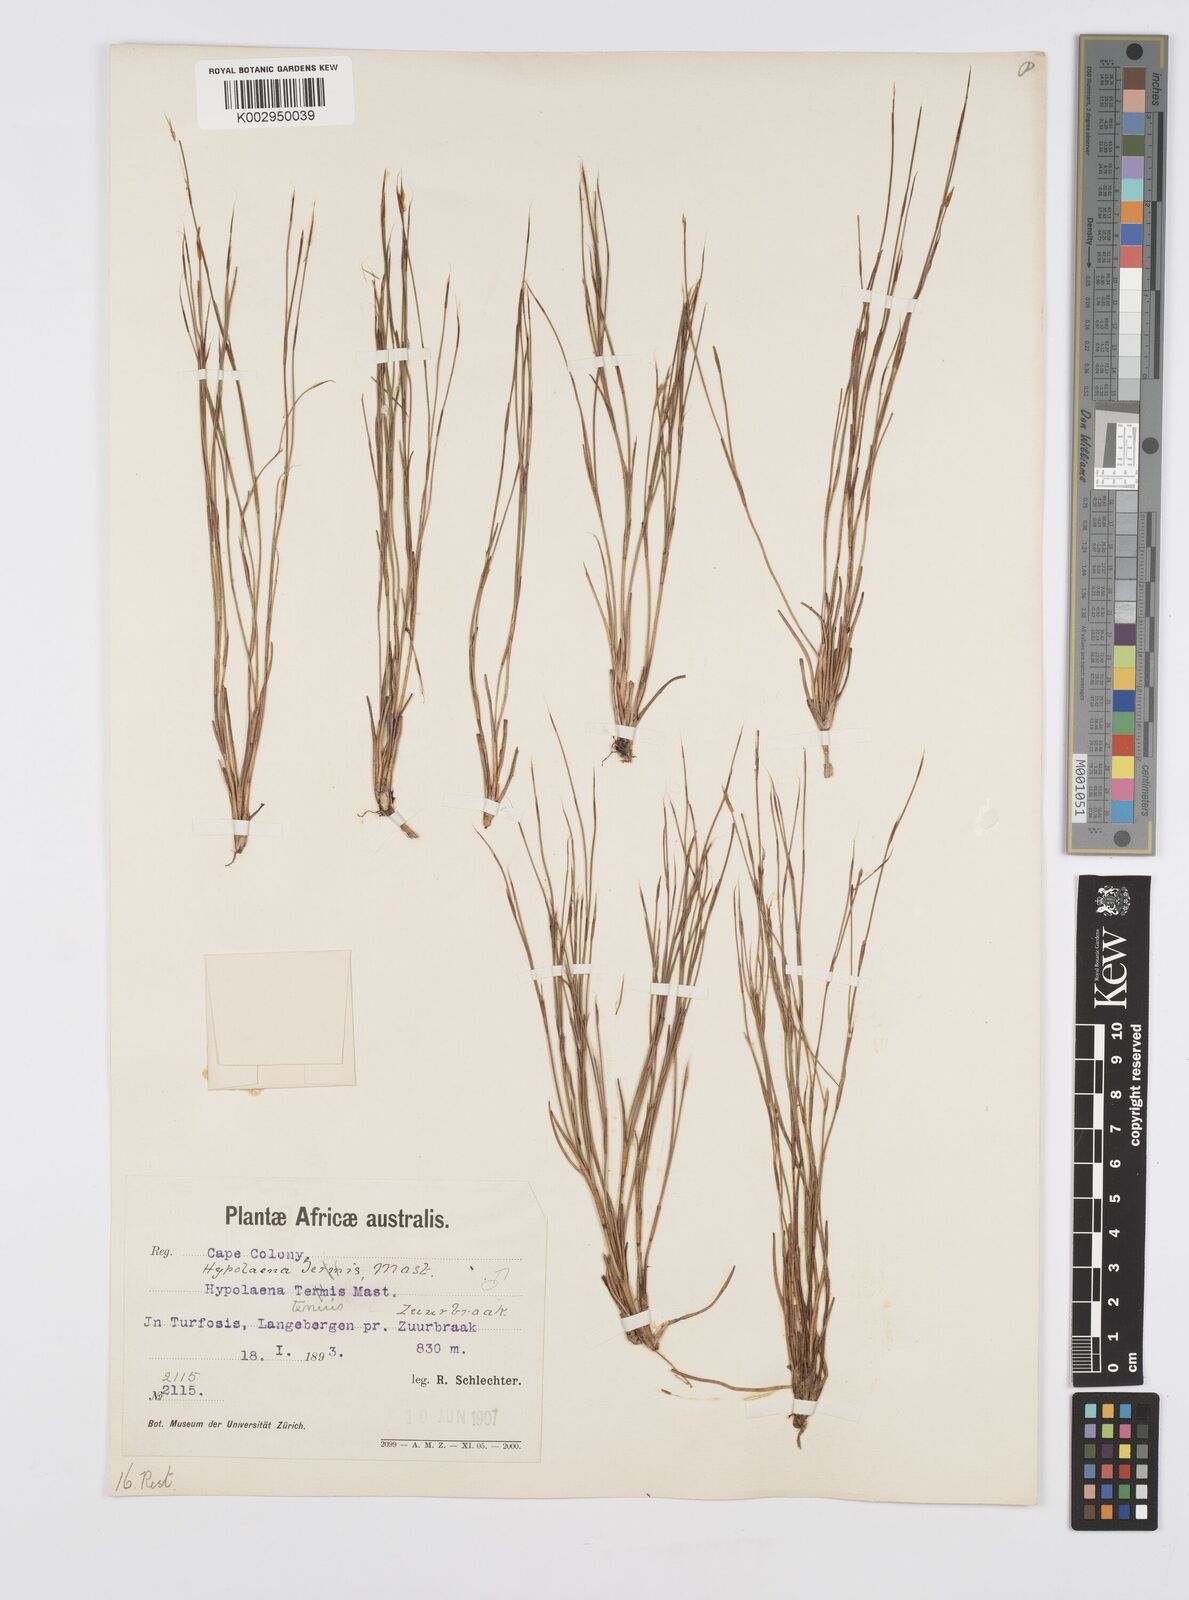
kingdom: Plantae
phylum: Tracheophyta
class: Liliopsida
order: Poales
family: Restionaceae
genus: Anthochortus
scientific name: Anthochortus ecklonii
